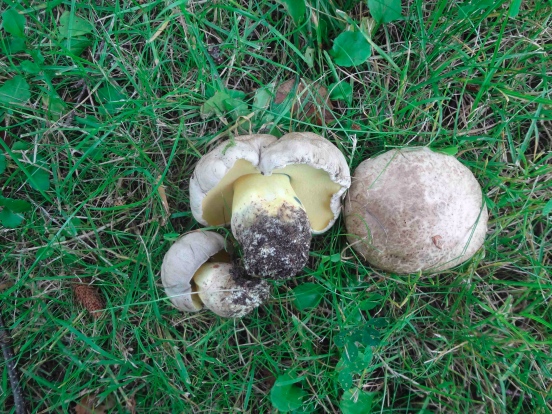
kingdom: Fungi
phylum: Basidiomycota
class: Agaricomycetes
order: Boletales
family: Boletaceae
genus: Caloboletus
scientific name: Caloboletus radicans
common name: rod-rørhat
